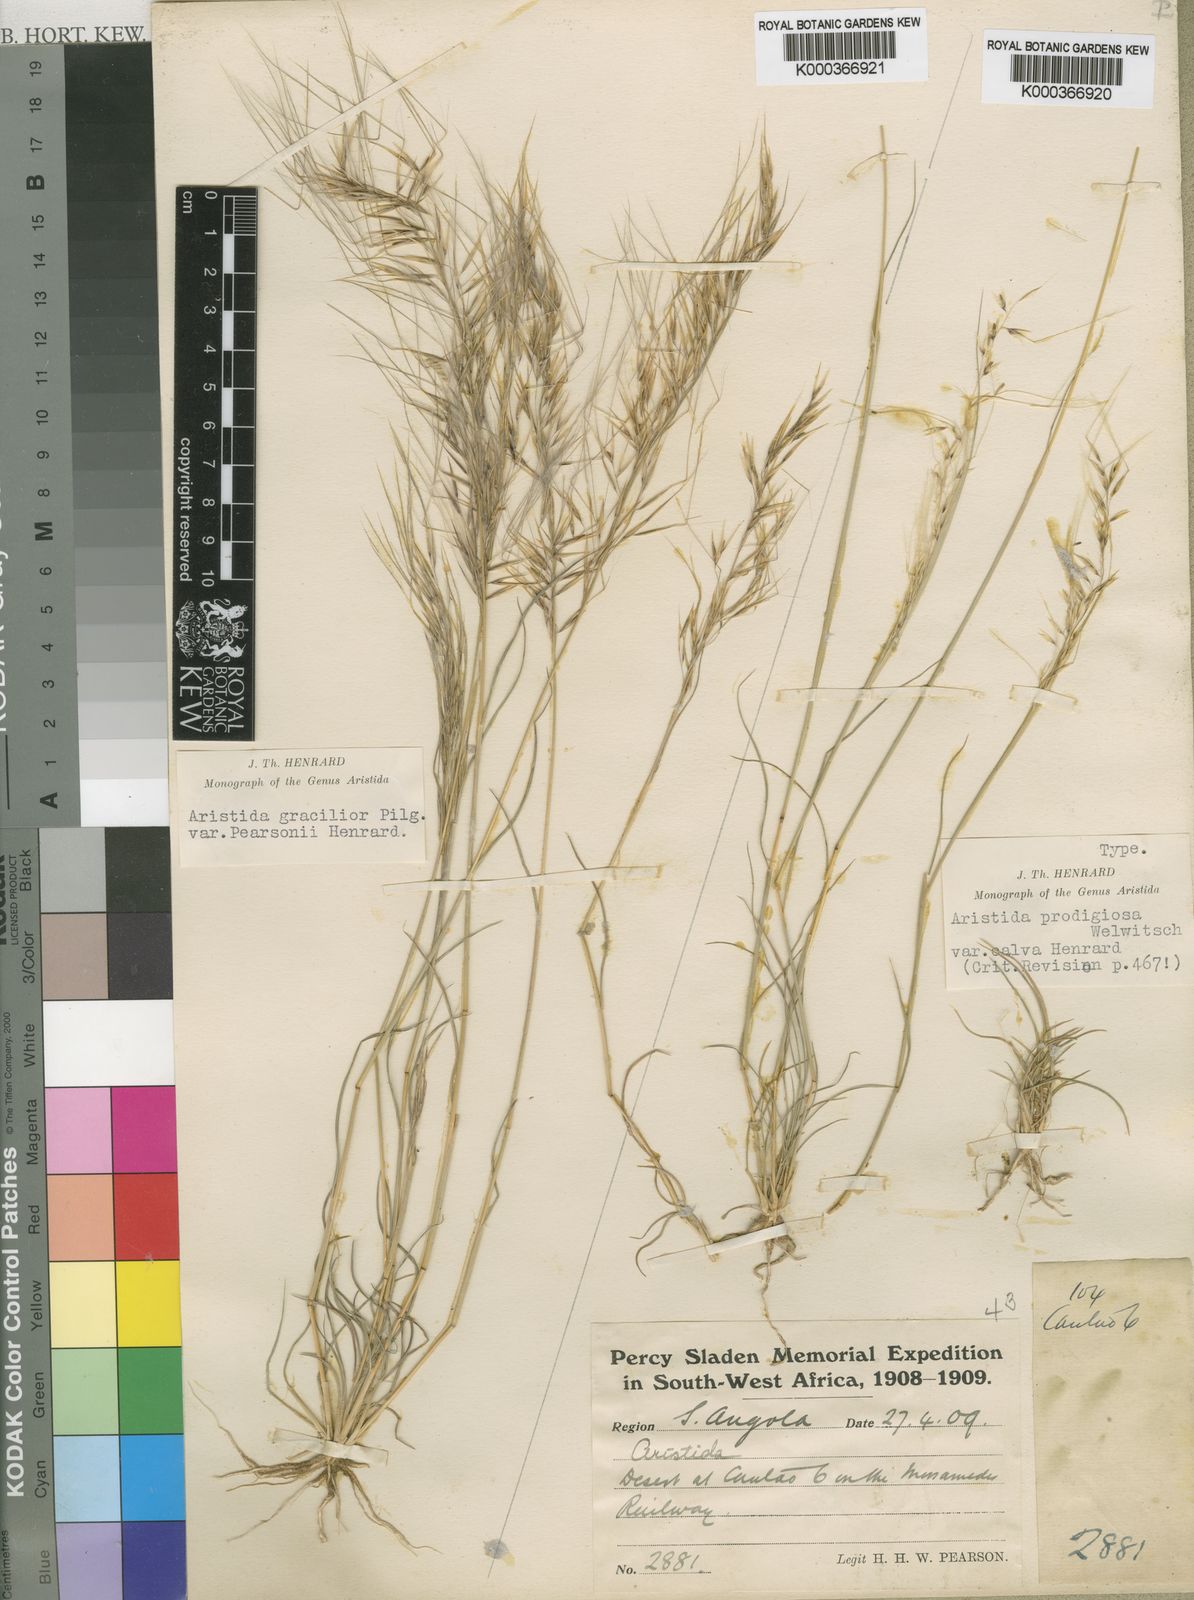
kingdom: Plantae
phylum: Tracheophyta
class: Liliopsida
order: Poales
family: Poaceae
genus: Stipagrostis
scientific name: Stipagrostis hirtigluma
